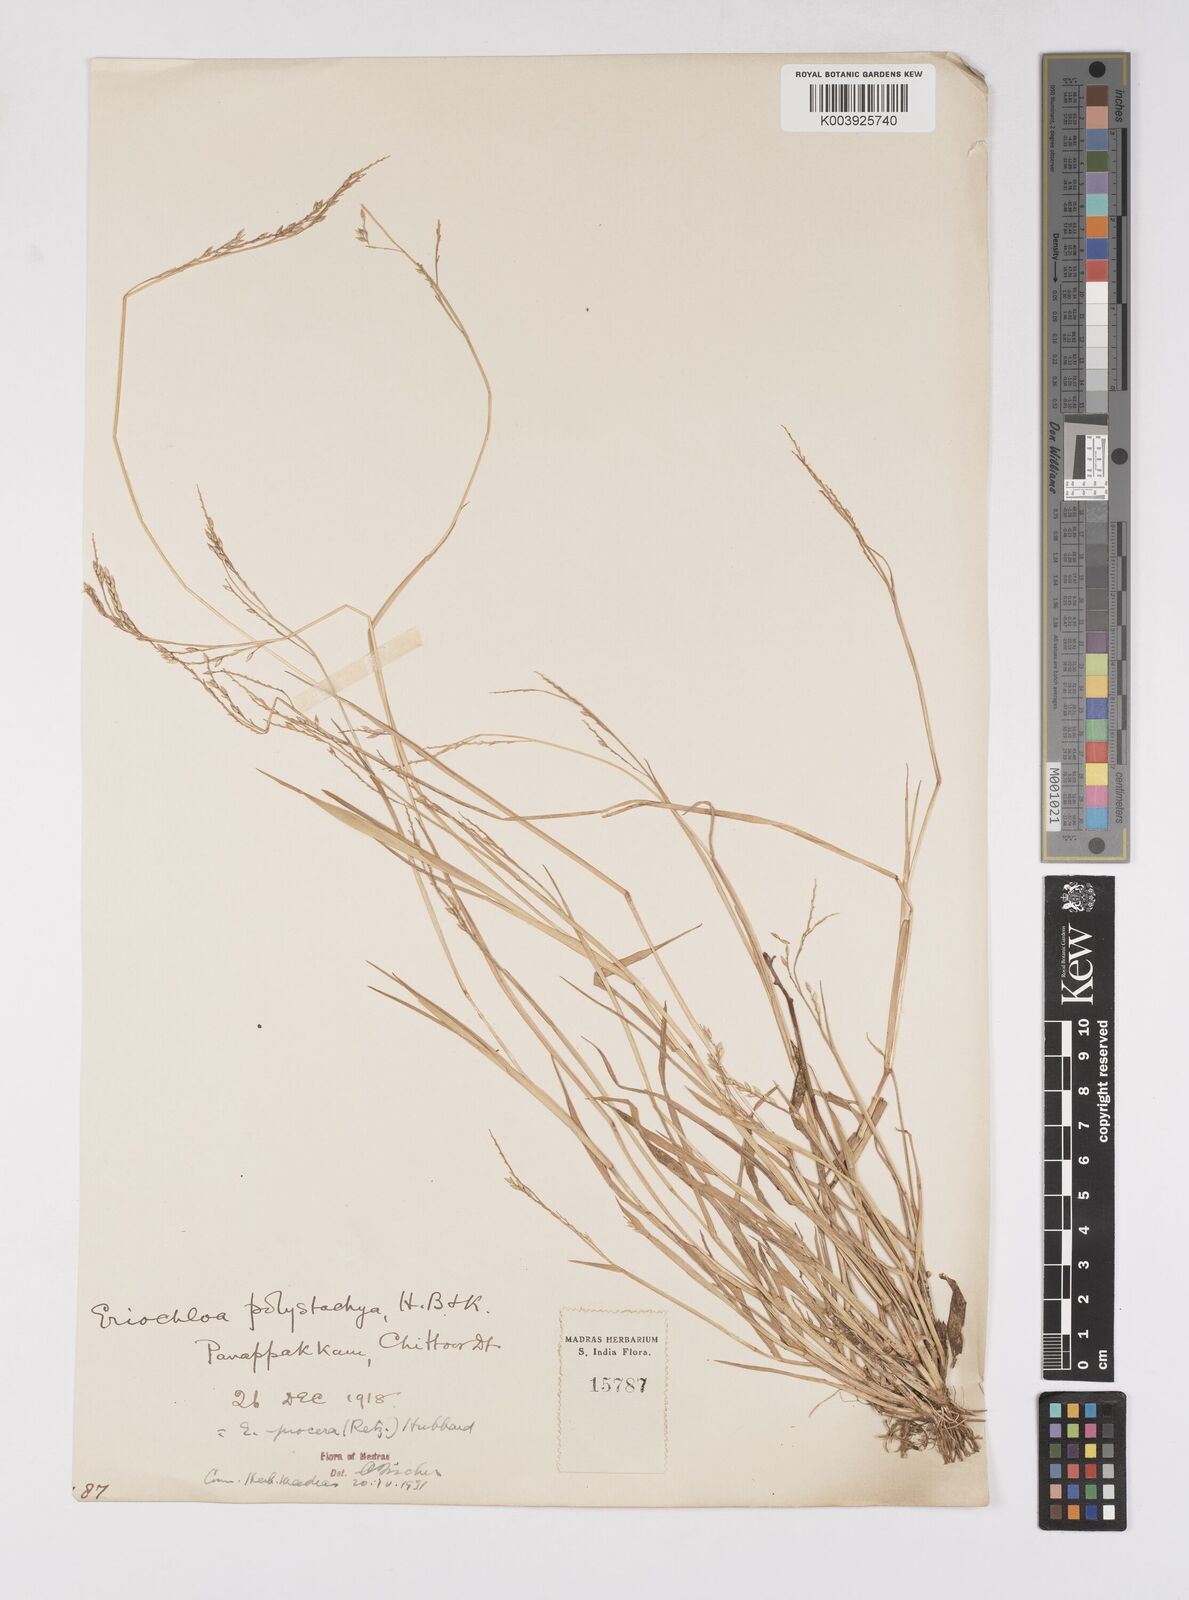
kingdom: Plantae
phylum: Tracheophyta
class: Liliopsida
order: Poales
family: Poaceae
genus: Eriochloa
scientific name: Eriochloa procera
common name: Spring grass
